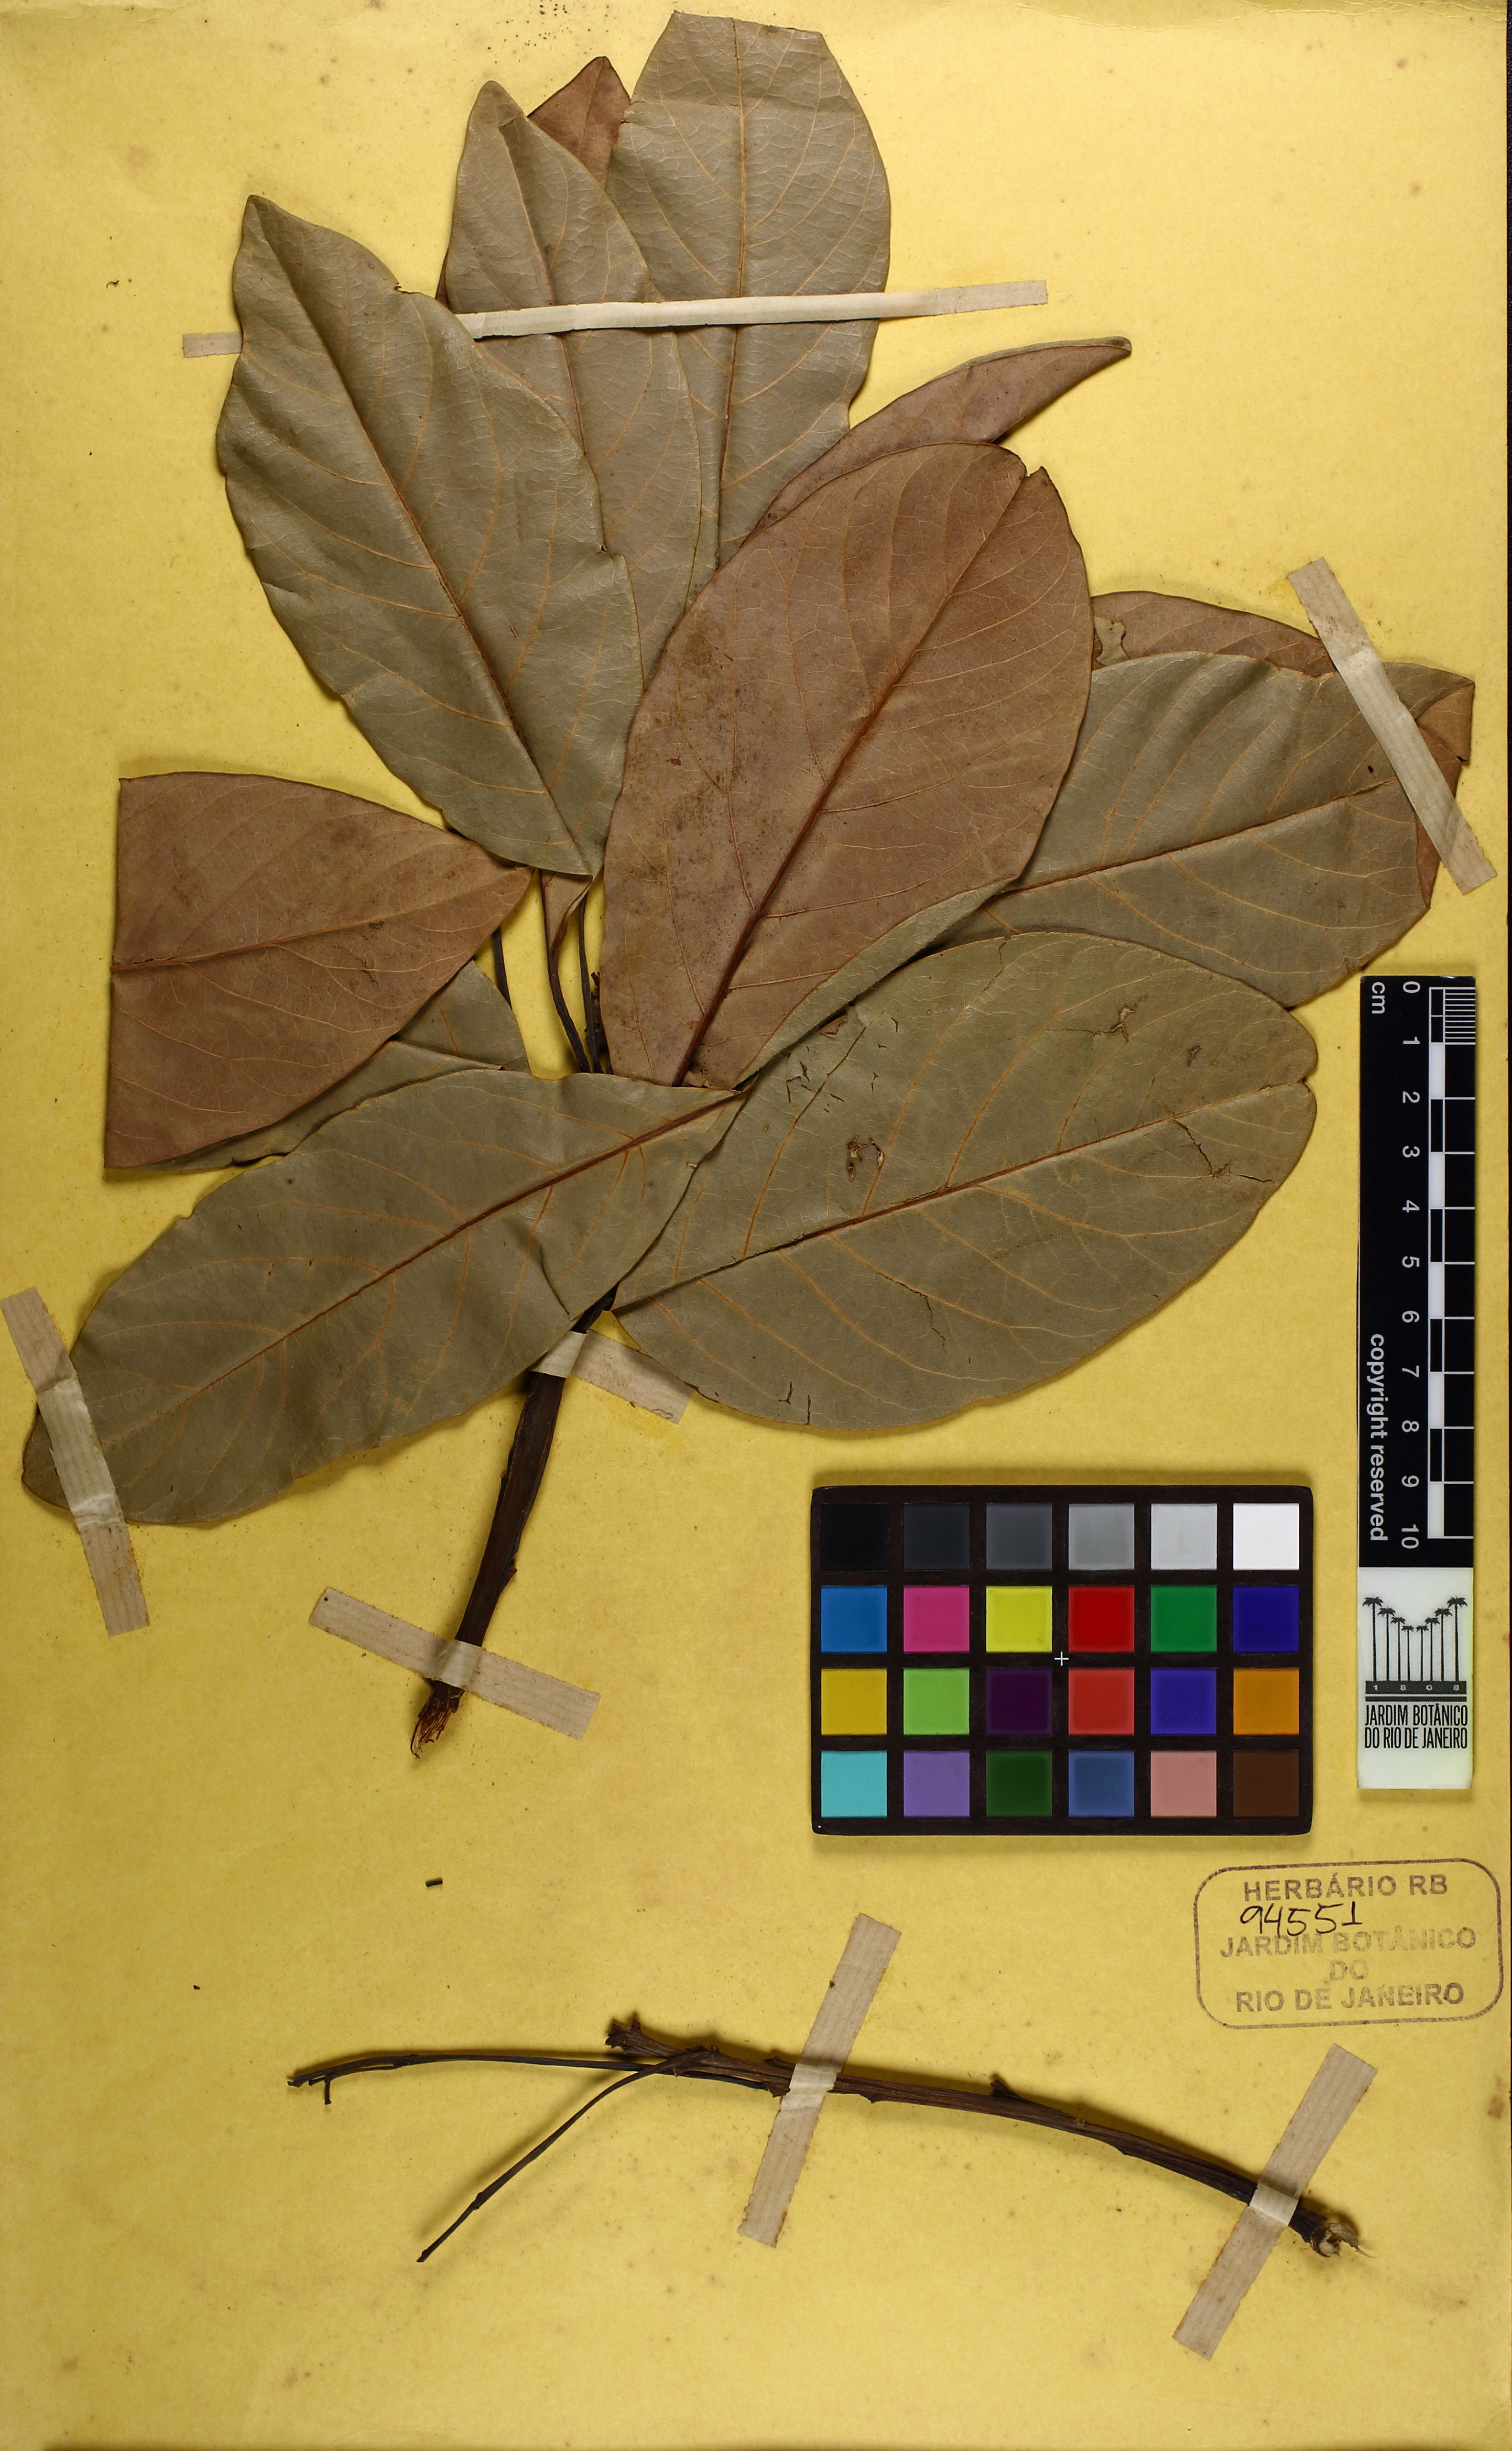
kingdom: Plantae
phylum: Tracheophyta
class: Magnoliopsida
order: Laurales
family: Lauraceae
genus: Persea
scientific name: Persea venosa
